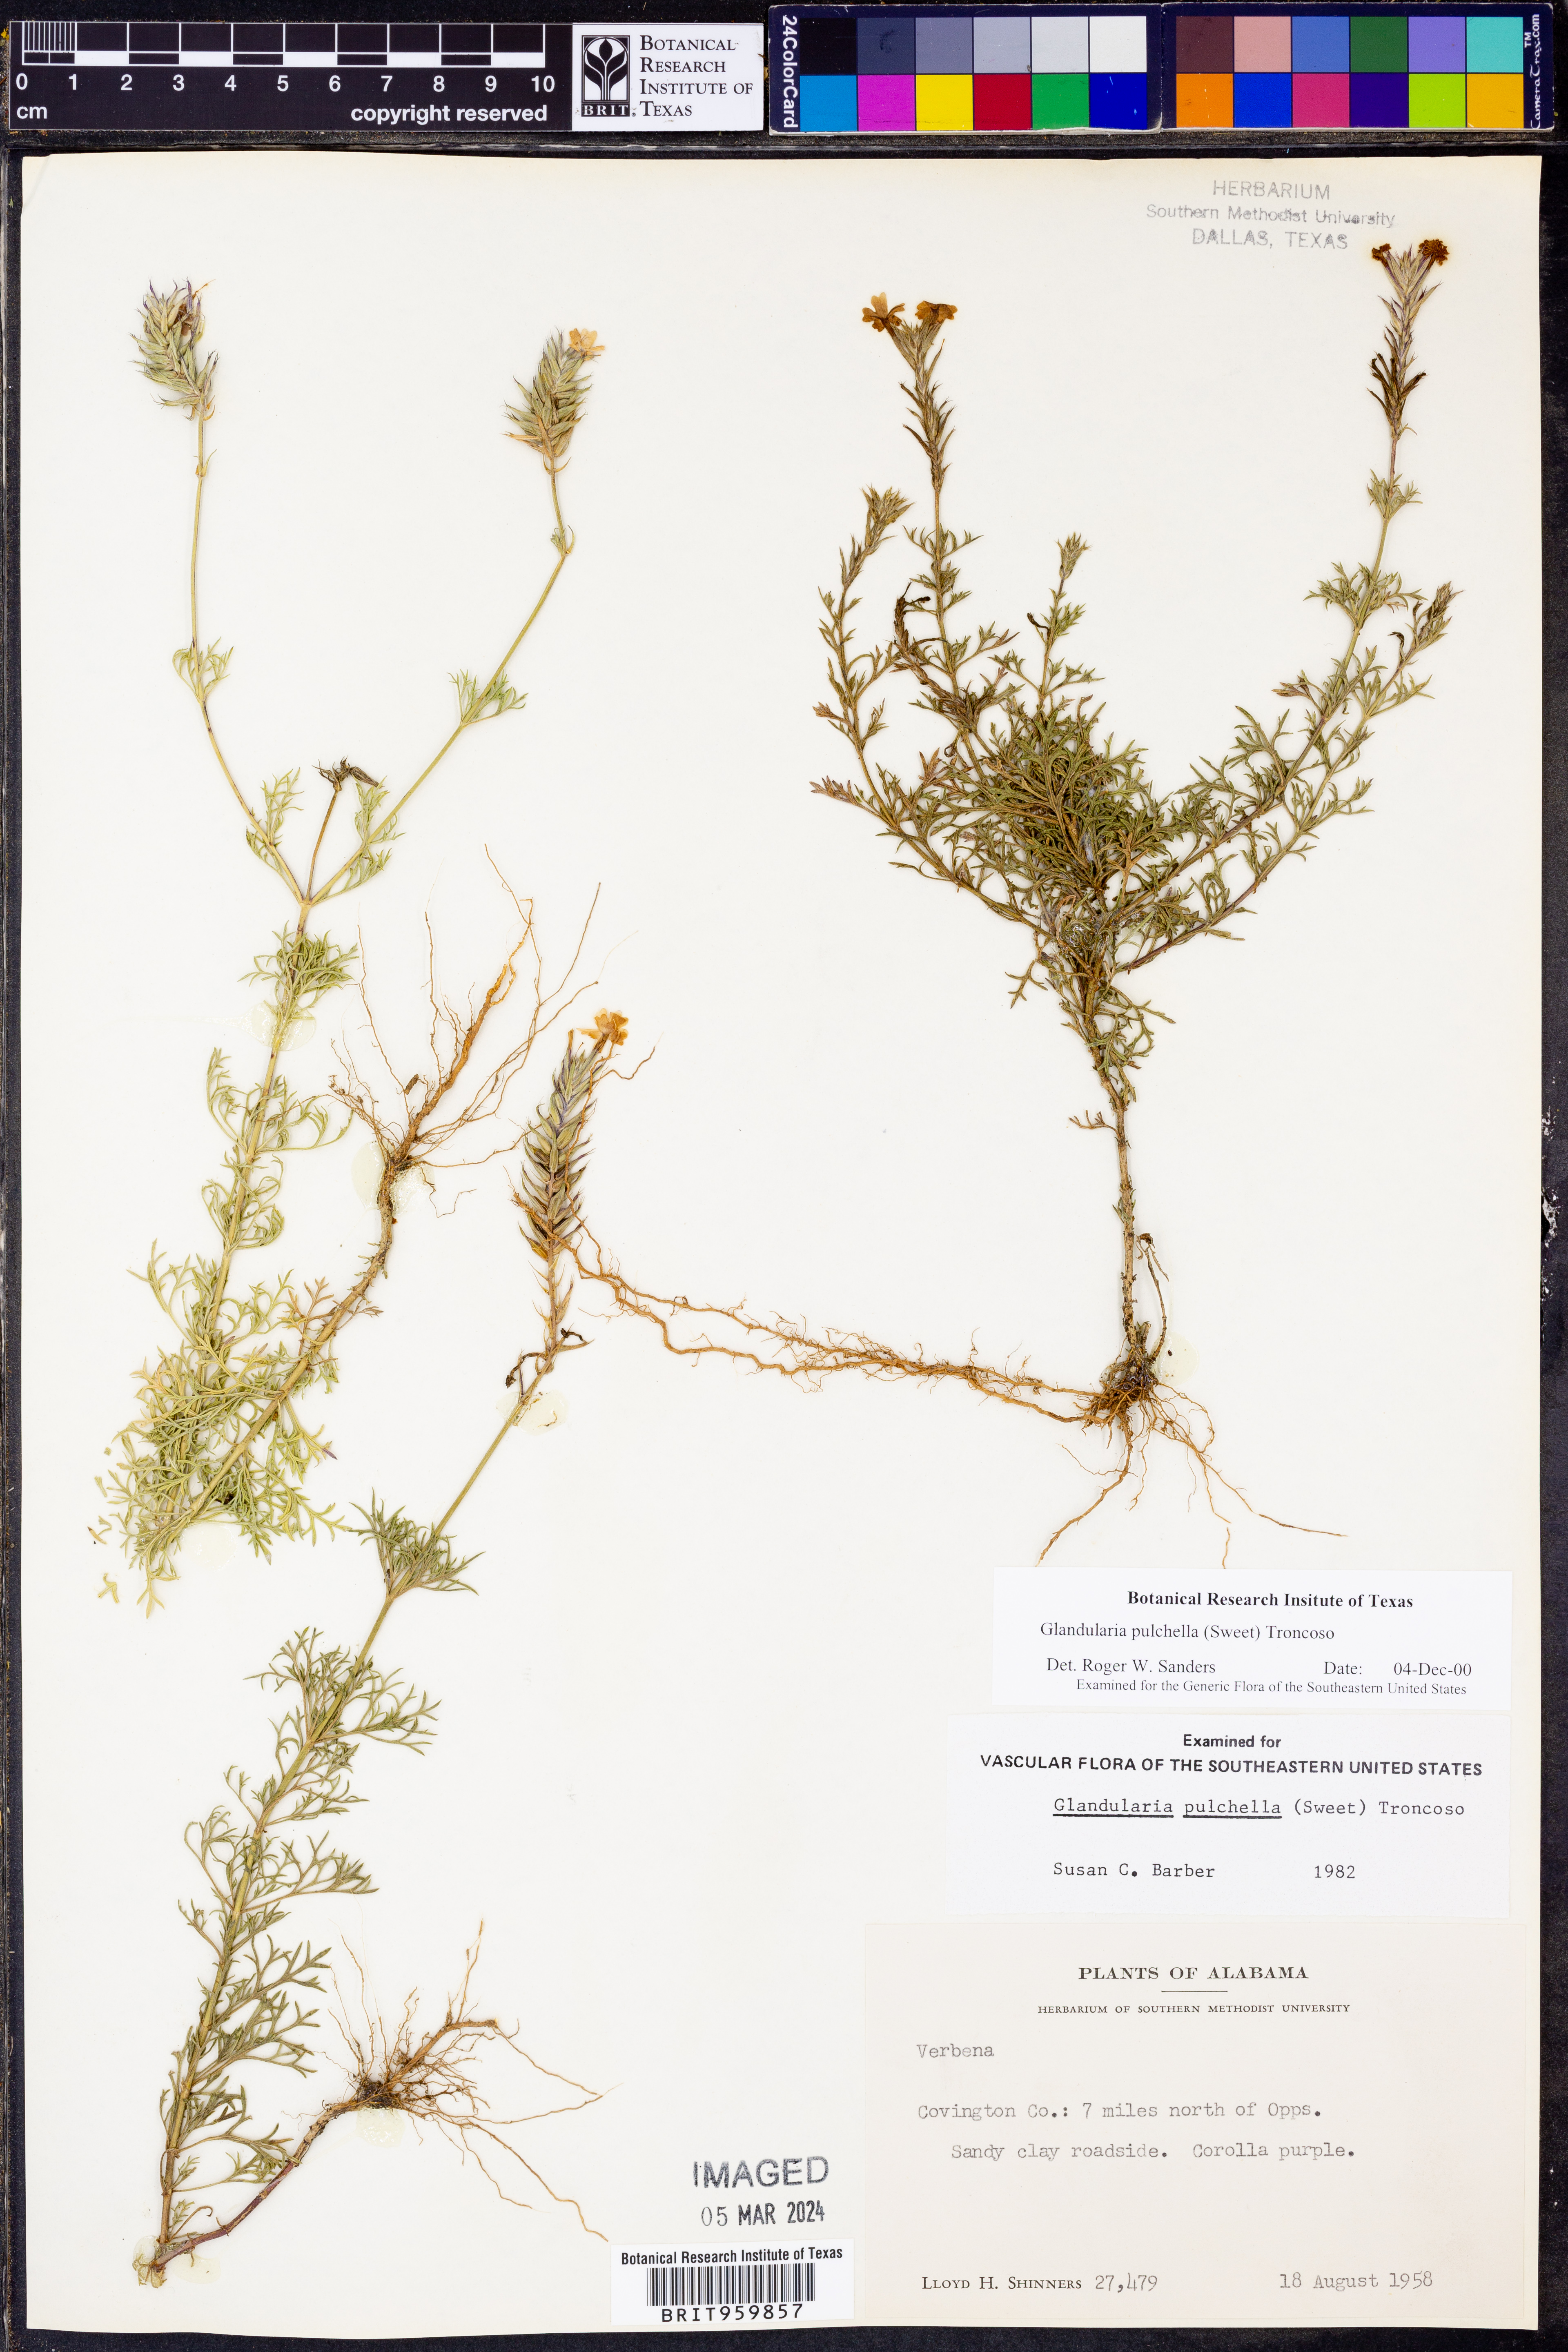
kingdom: Plantae
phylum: Tracheophyta
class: Magnoliopsida
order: Lamiales
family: Verbenaceae
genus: Verbena
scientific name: Verbena tenera
